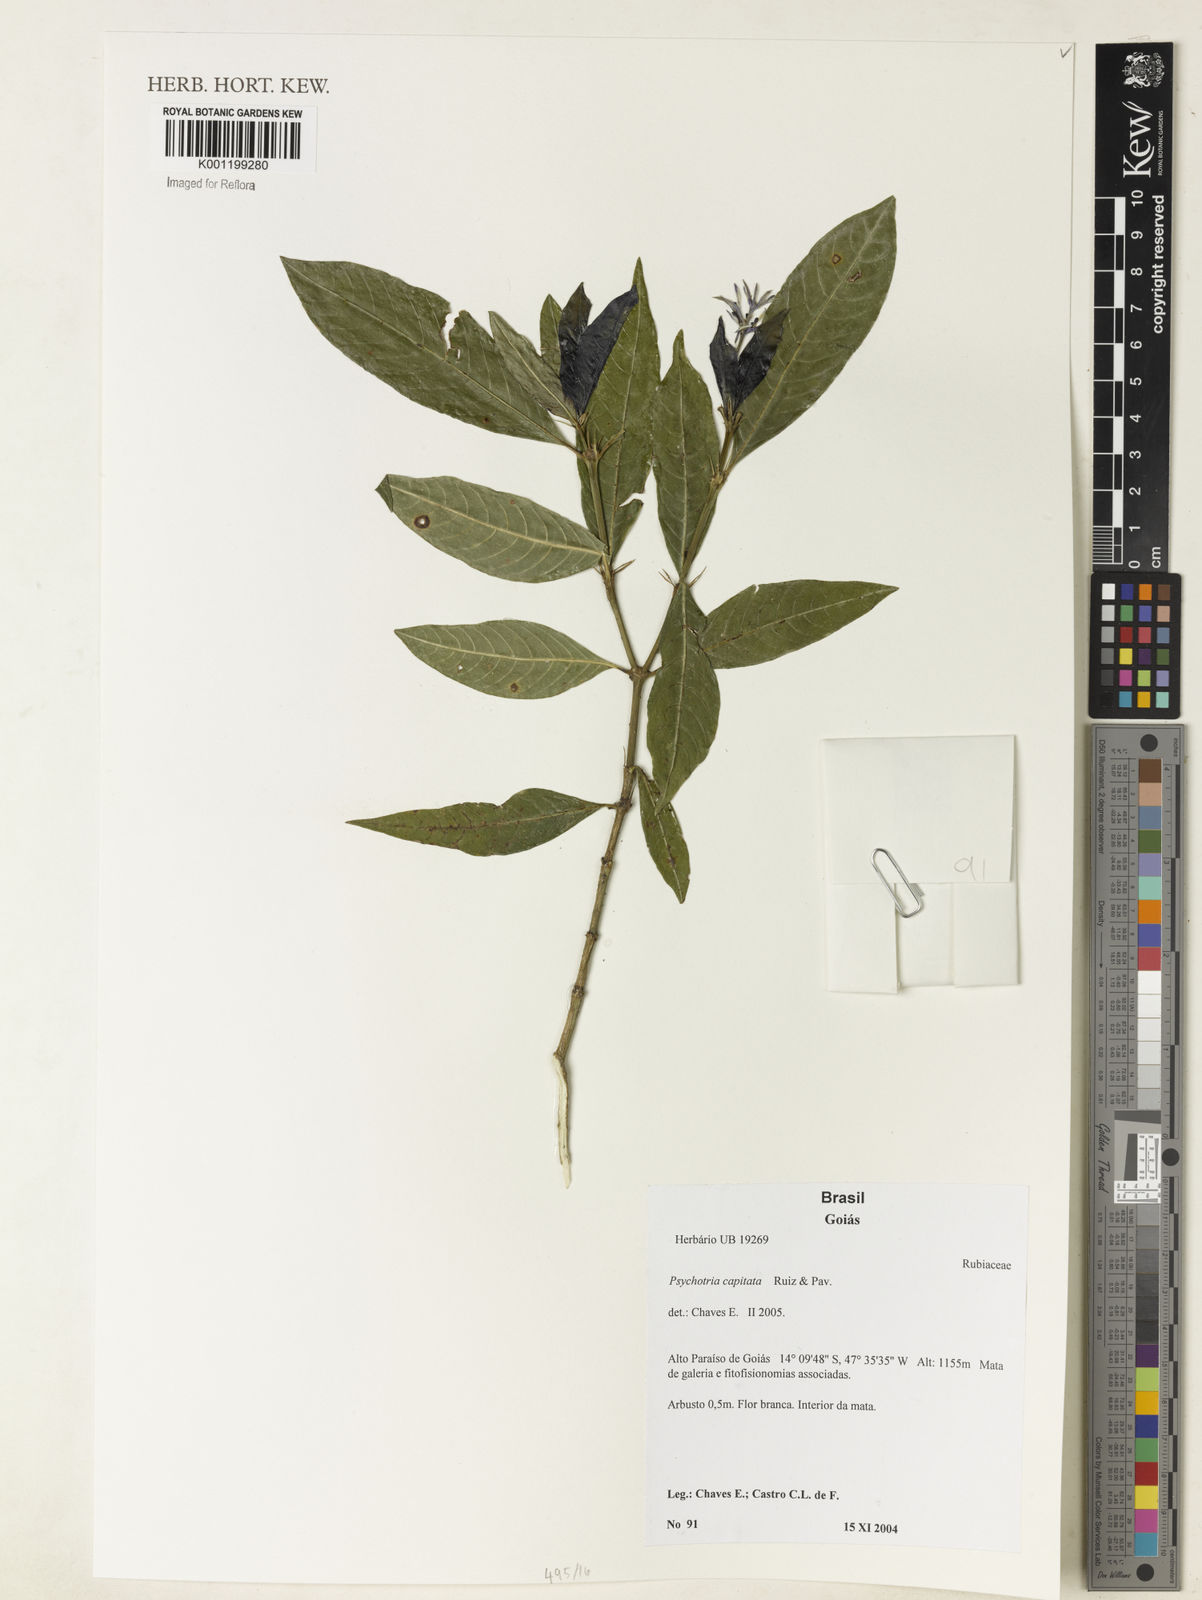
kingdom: Plantae
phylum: Tracheophyta
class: Magnoliopsida
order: Gentianales
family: Rubiaceae
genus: Palicourea
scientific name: Palicourea violacea
